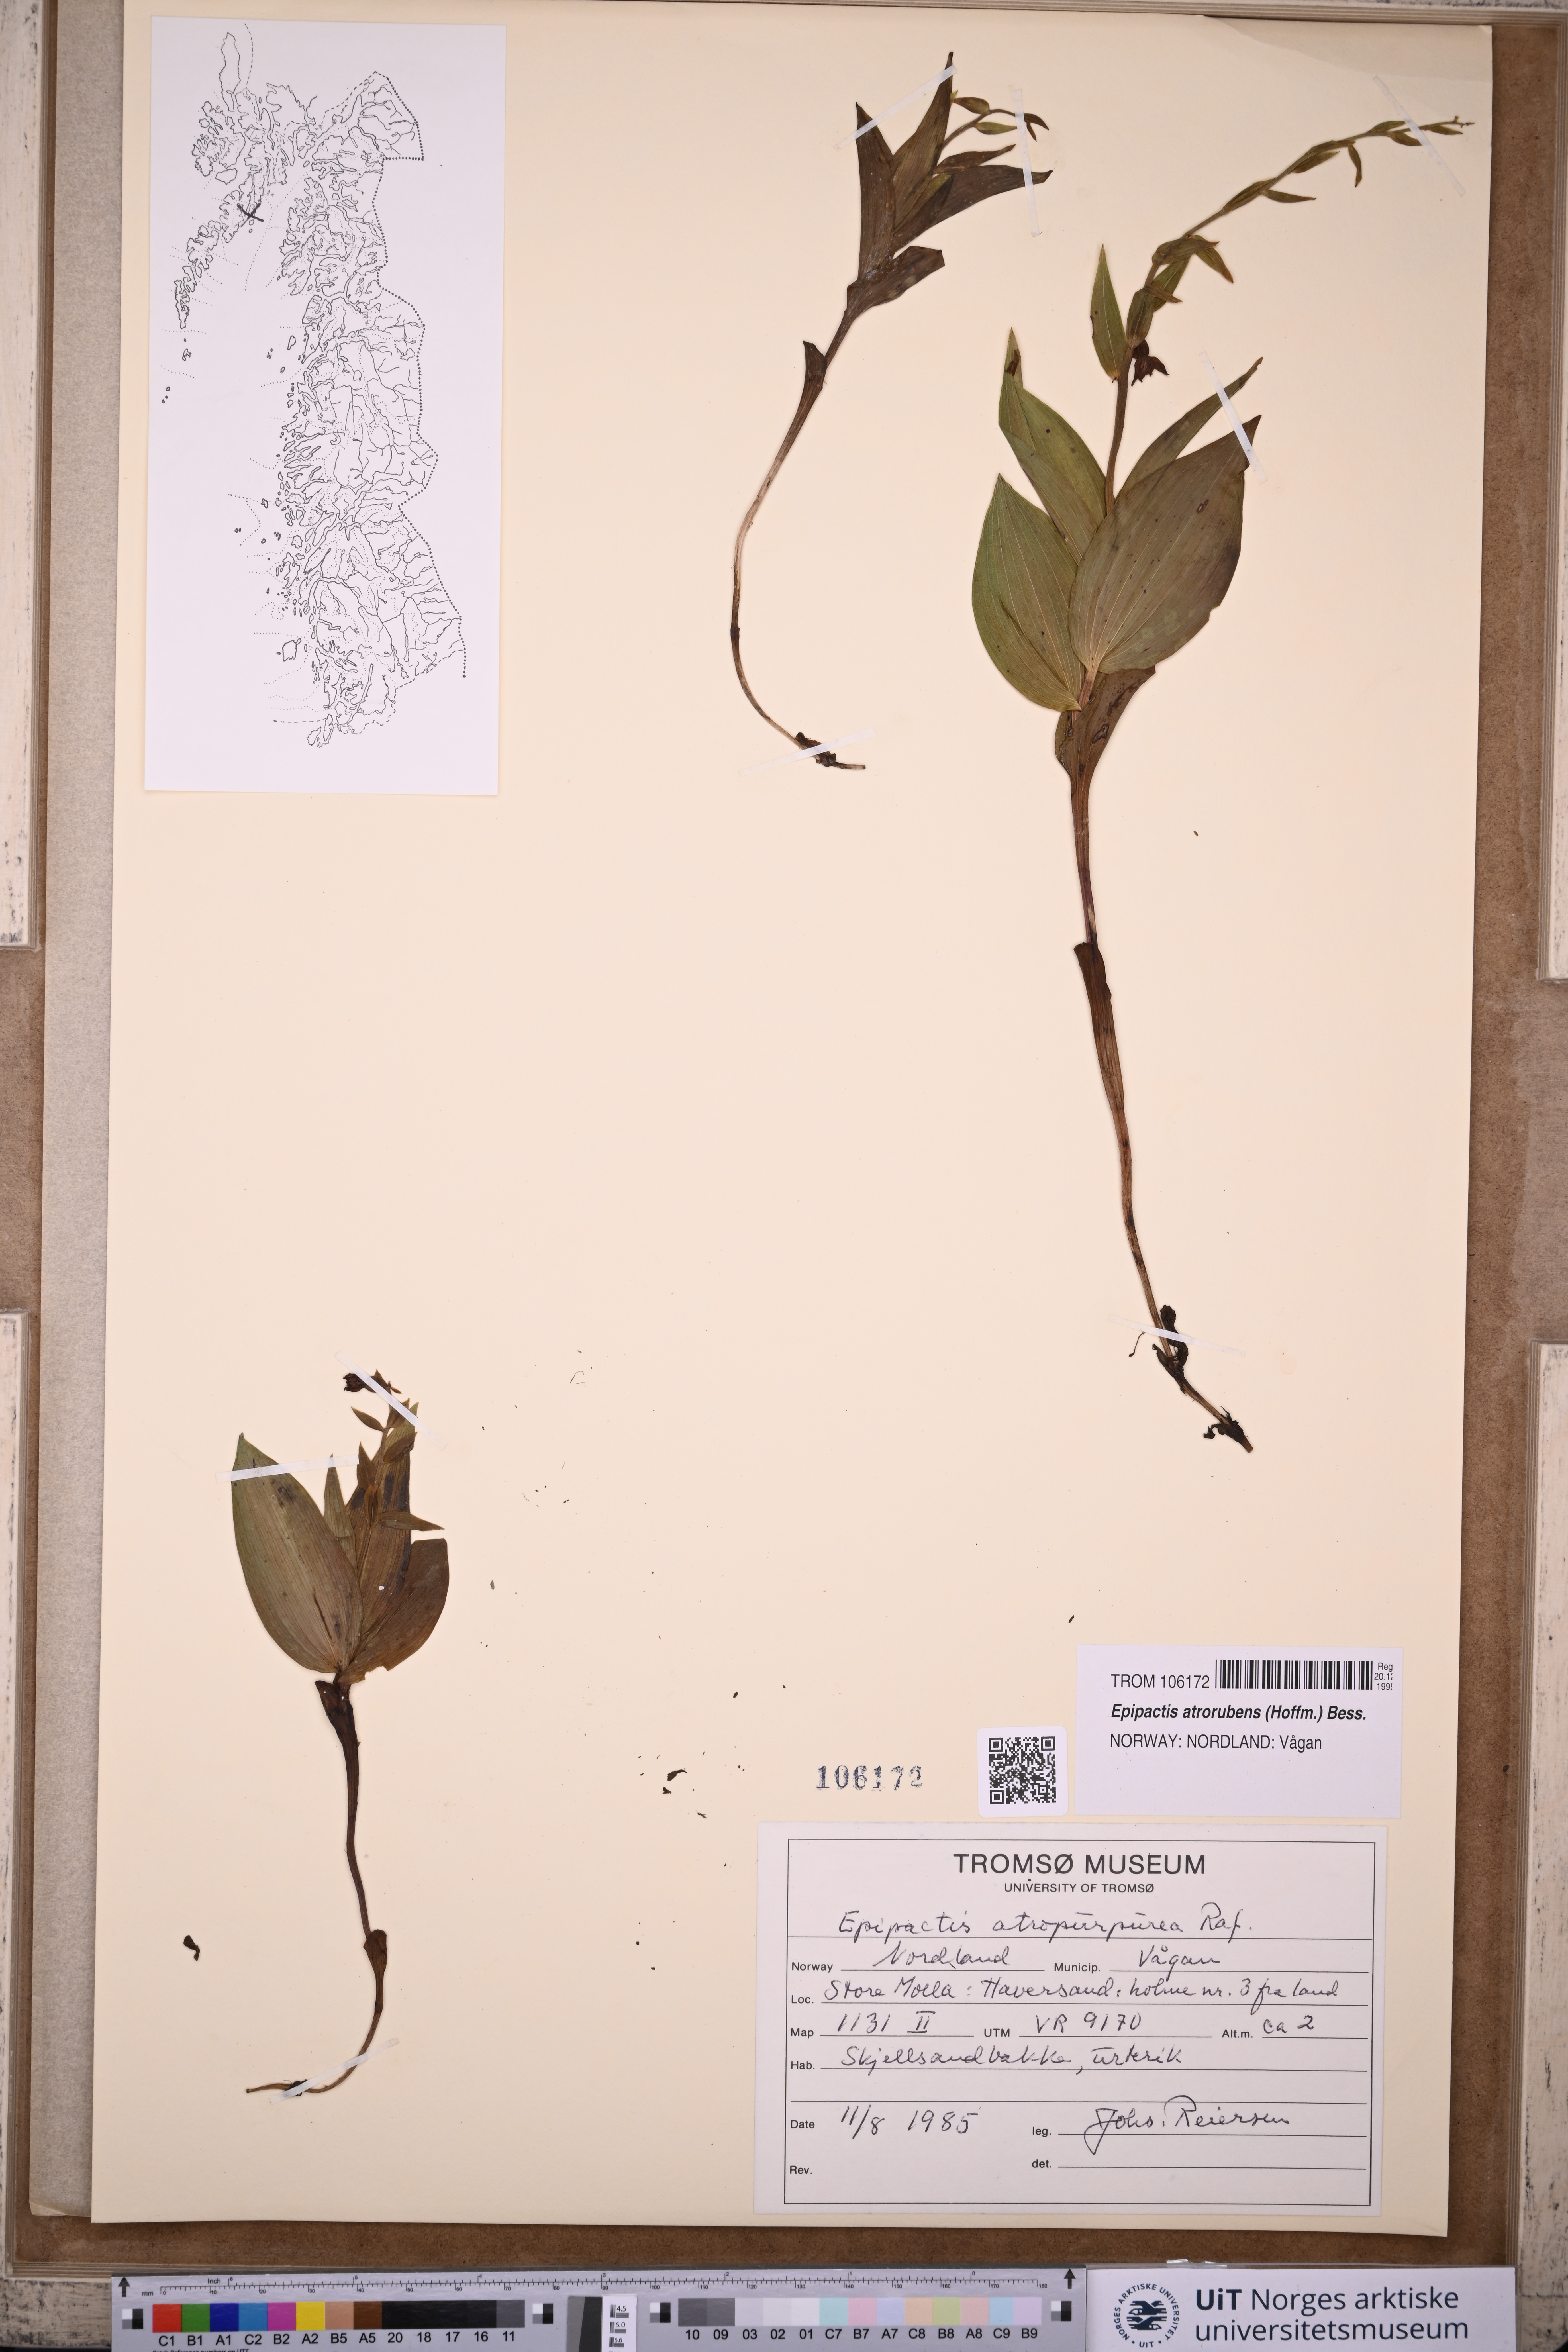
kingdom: Plantae
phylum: Tracheophyta
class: Liliopsida
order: Asparagales
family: Orchidaceae
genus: Epipactis
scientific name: Epipactis atrorubens
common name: Dark-red helleborine
